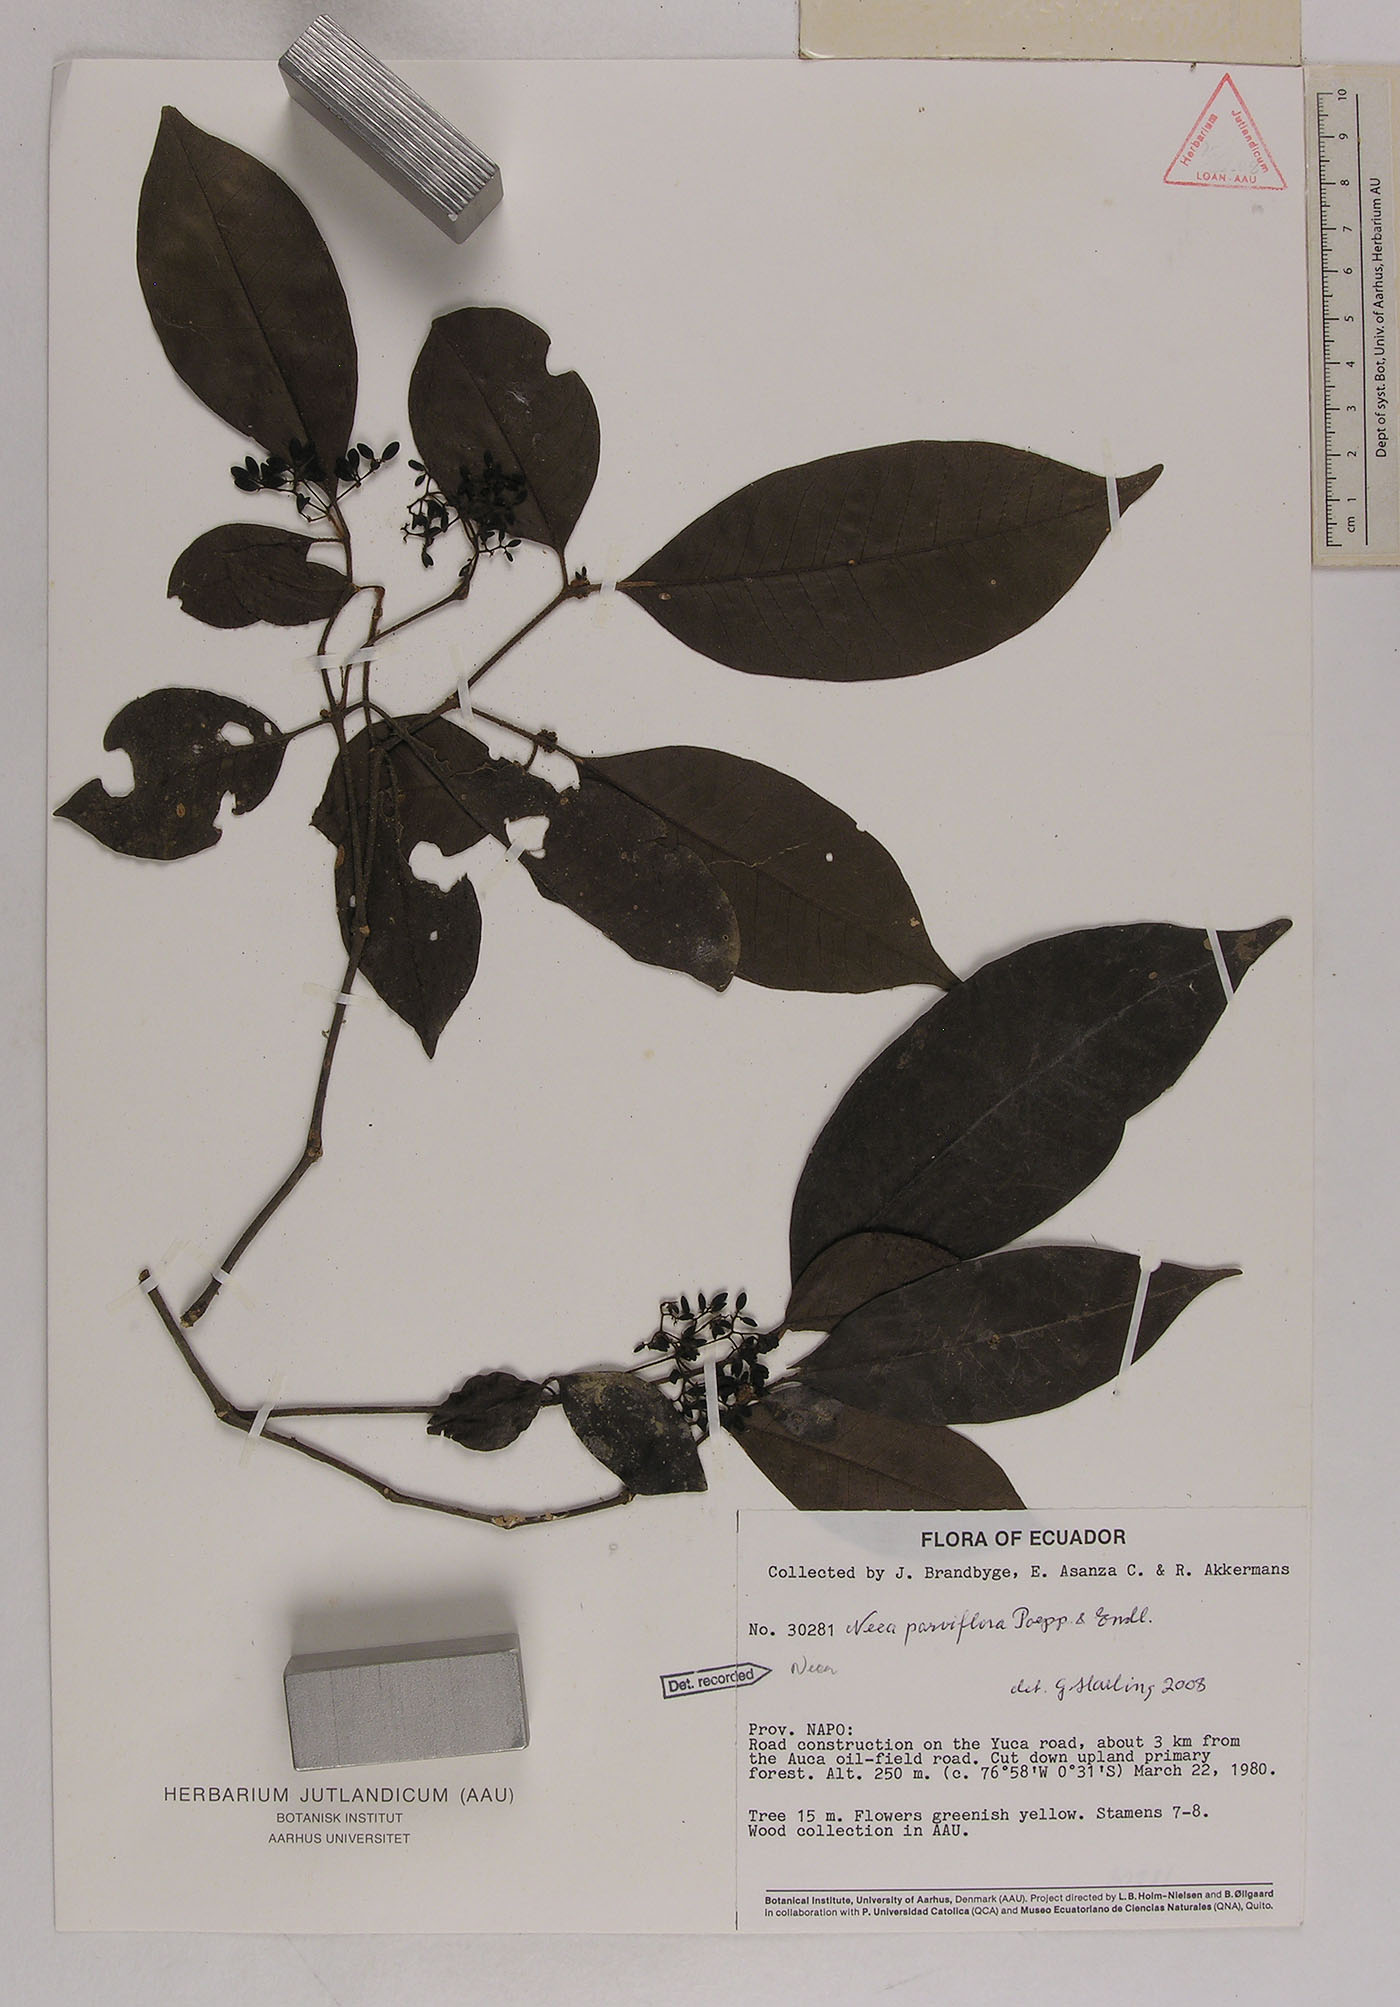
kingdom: Plantae
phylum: Tracheophyta
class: Magnoliopsida
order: Caryophyllales
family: Nyctaginaceae
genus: Neea
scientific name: Neea parviflora
